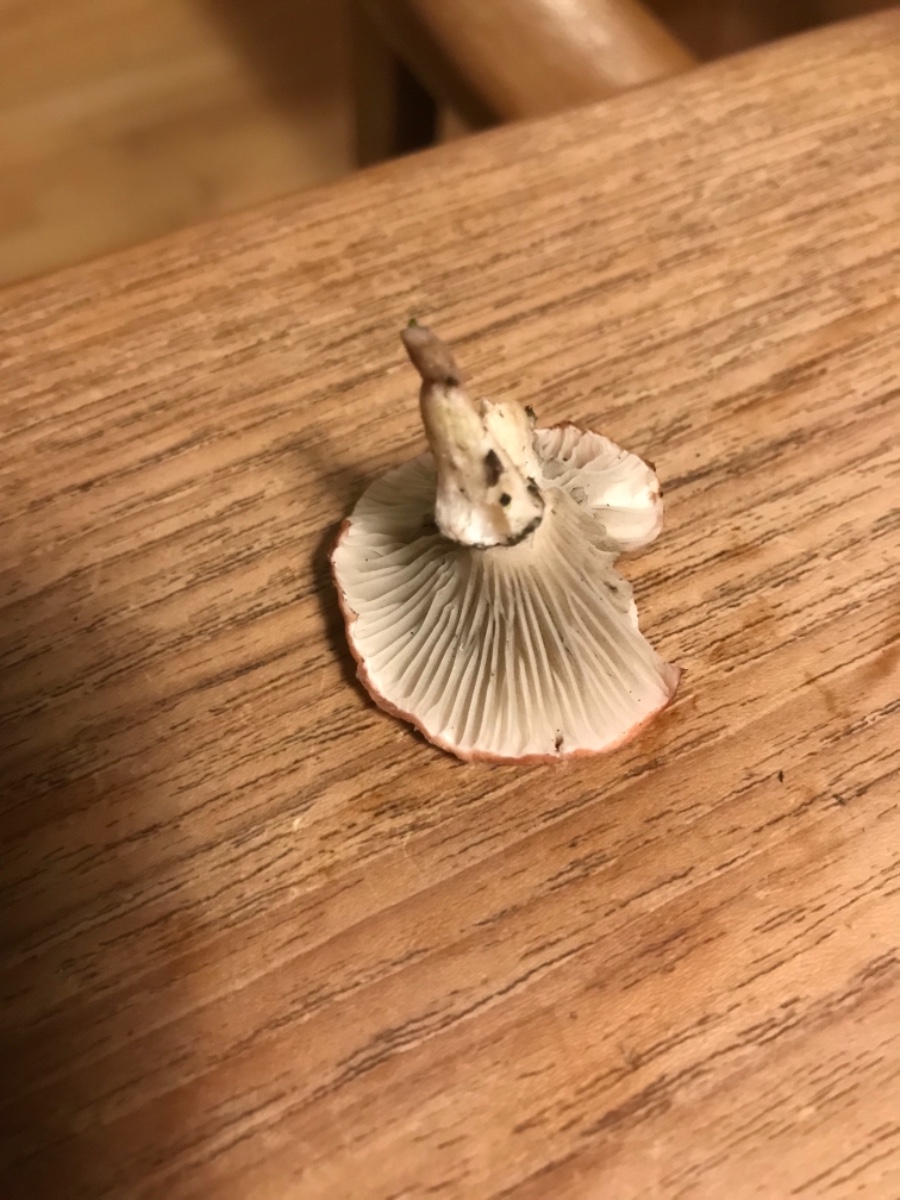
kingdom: Fungi
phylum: Basidiomycota
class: Agaricomycetes
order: Boletales
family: Gomphidiaceae
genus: Gomphidius
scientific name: Gomphidius roseus
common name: rosenrød slimslør
